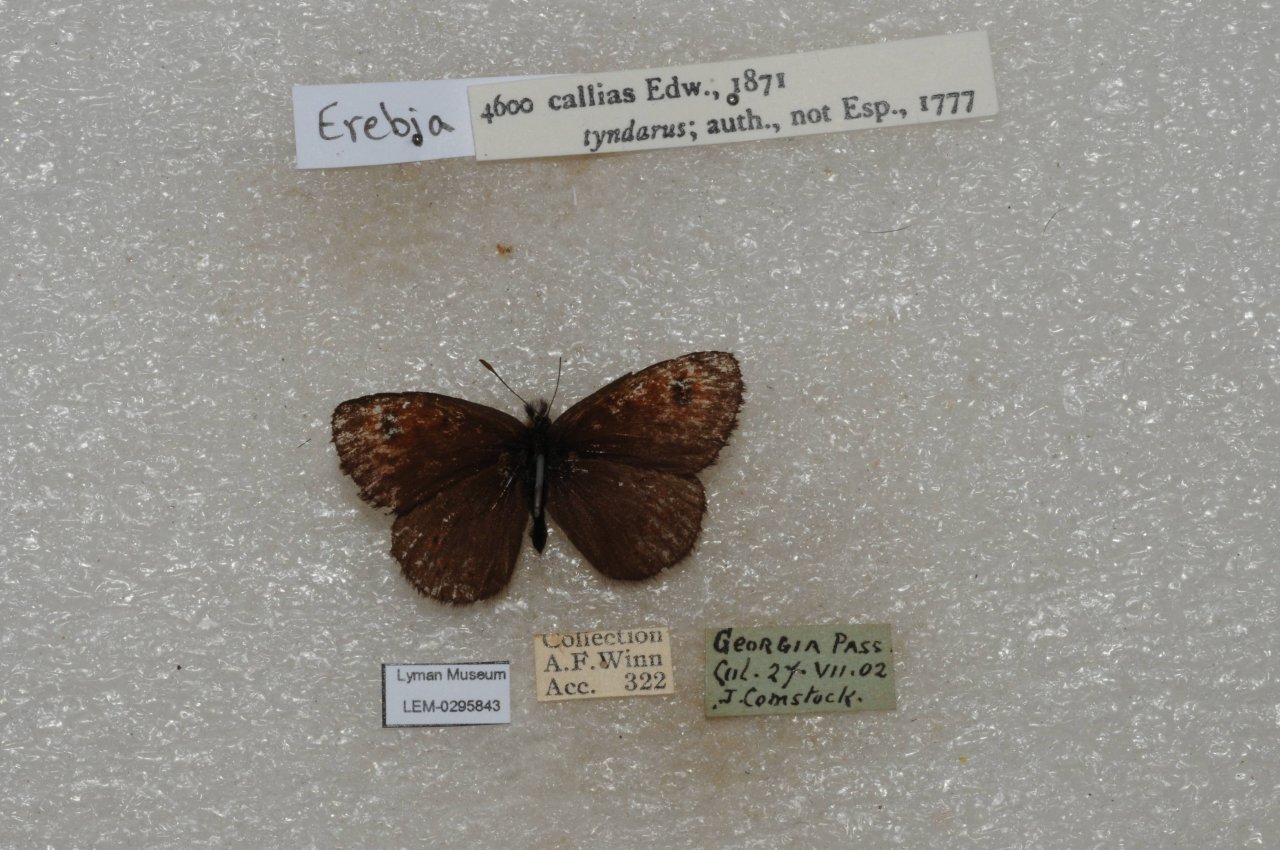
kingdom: Animalia
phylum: Arthropoda
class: Insecta
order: Lepidoptera
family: Nymphalidae
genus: Erebia
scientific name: Erebia tyndarus
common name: Colorado Alpine
